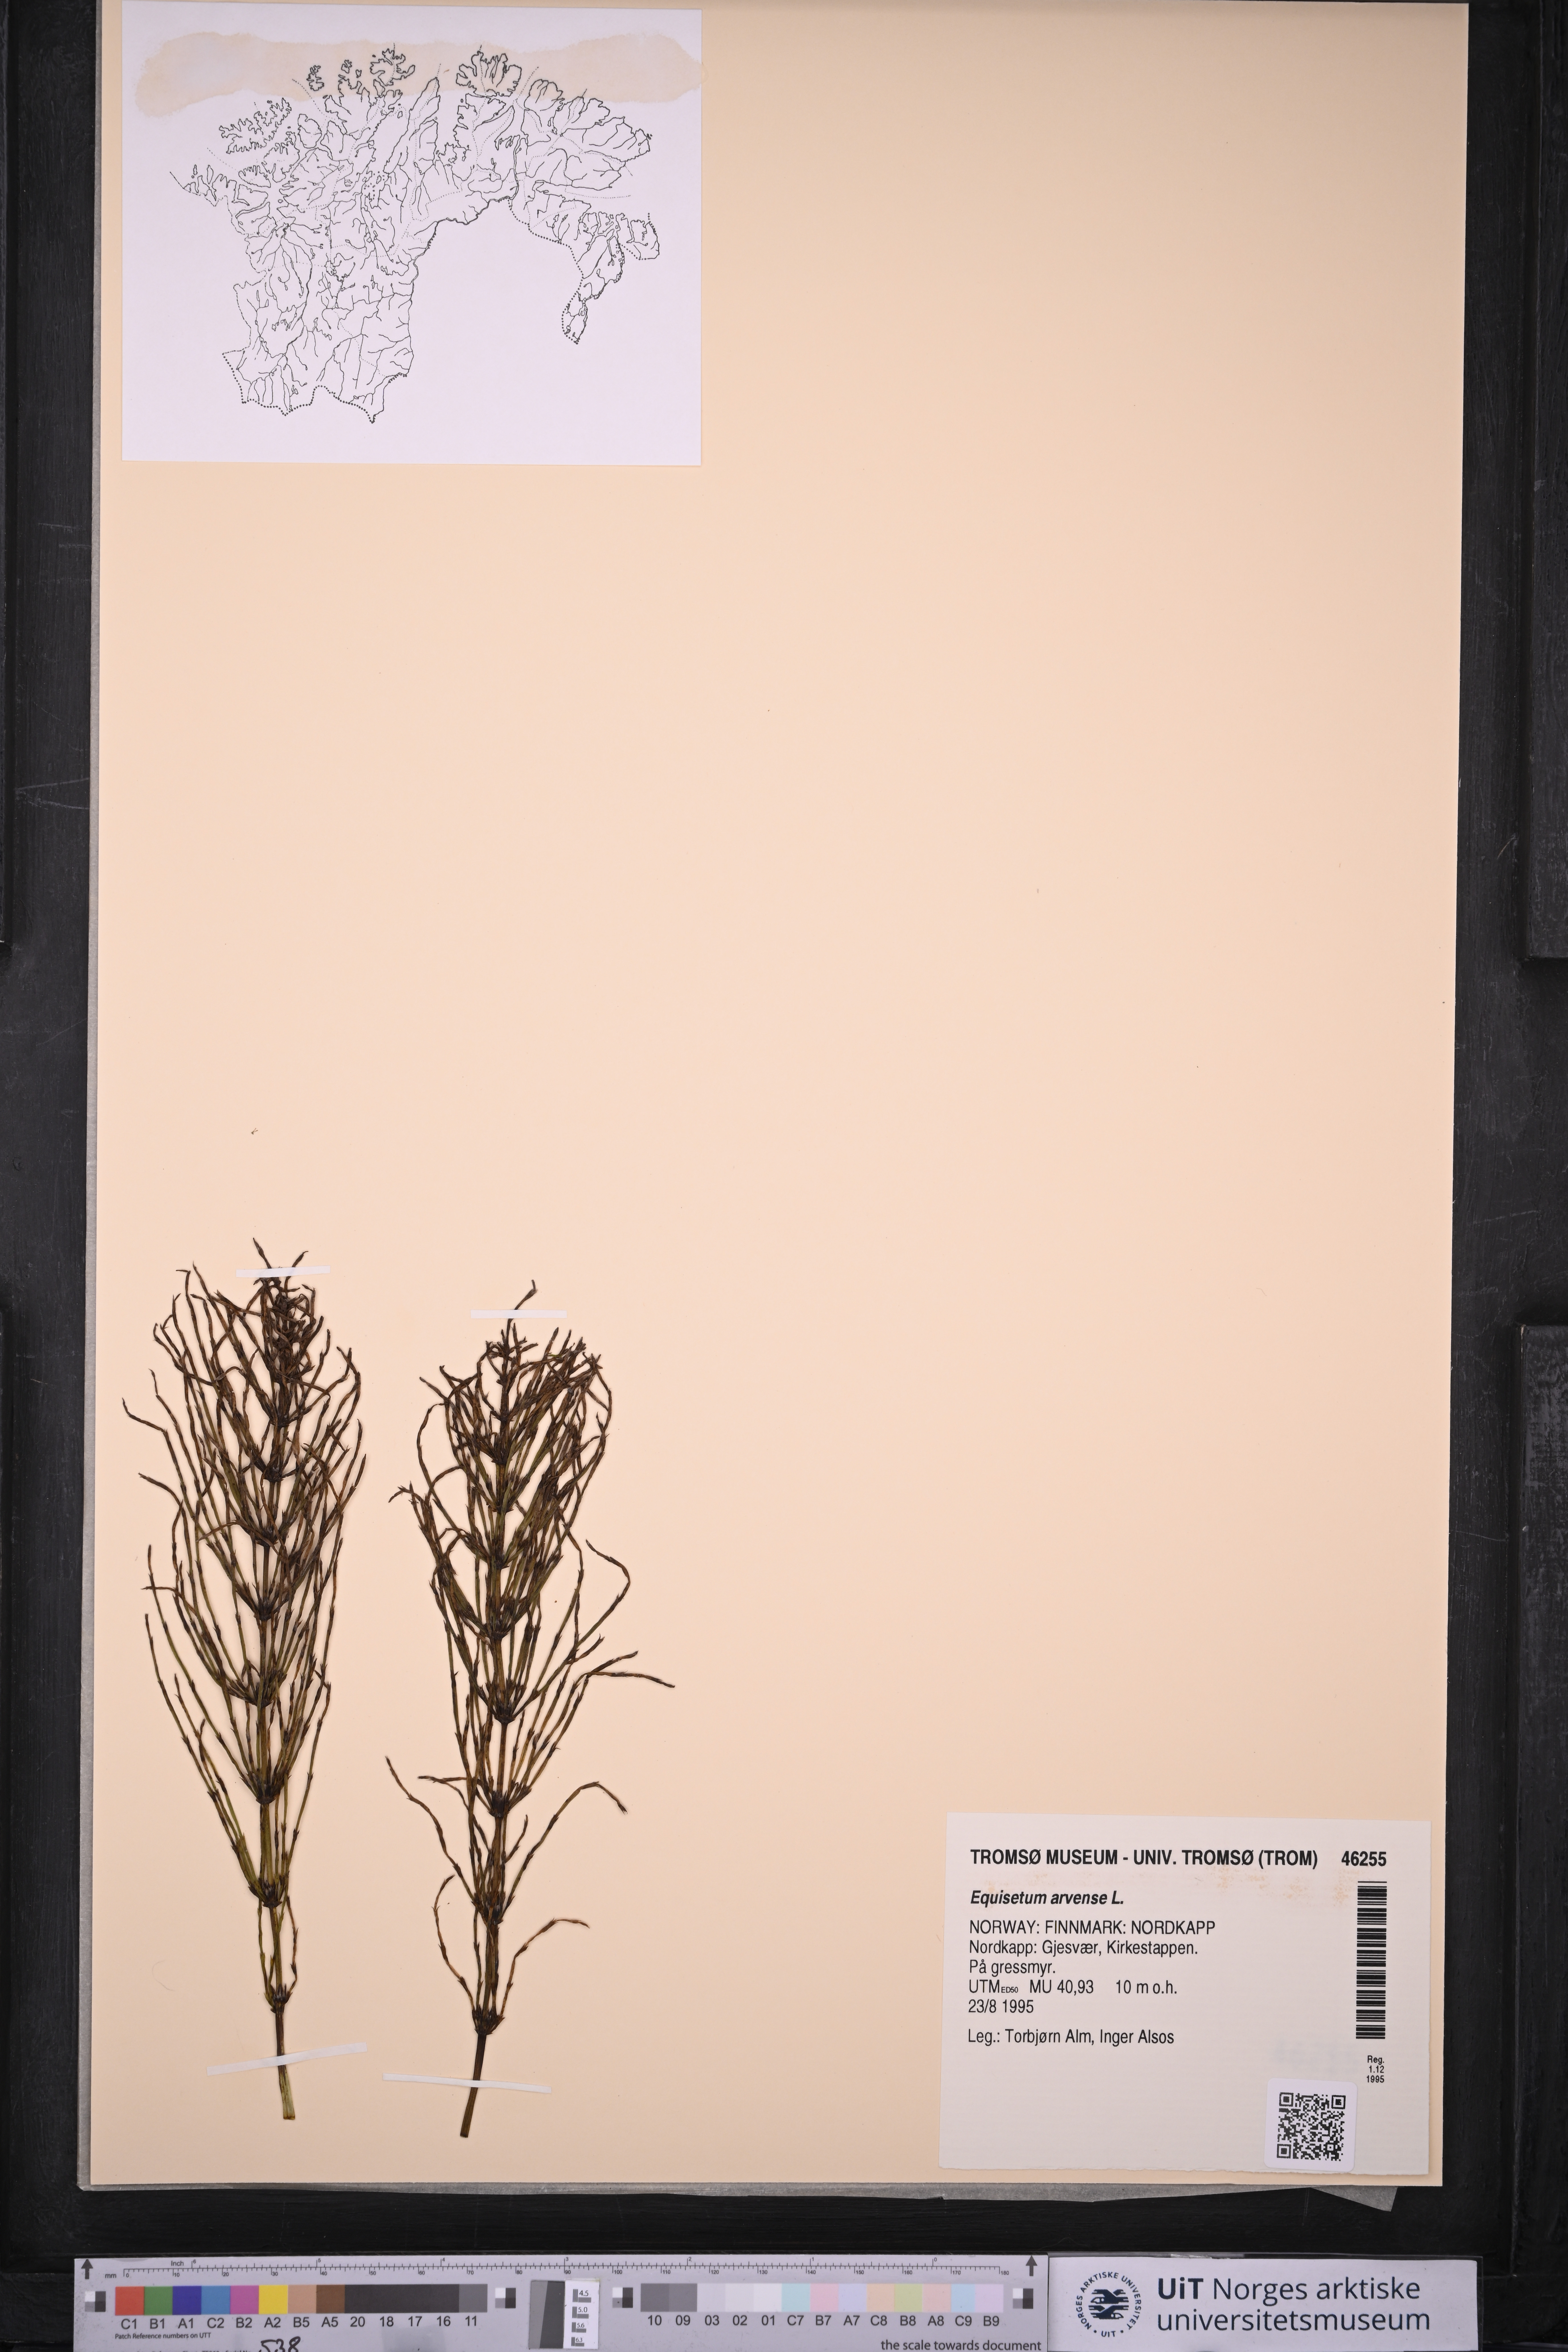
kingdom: Plantae
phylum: Tracheophyta
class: Polypodiopsida
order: Equisetales
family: Equisetaceae
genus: Equisetum
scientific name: Equisetum arvense
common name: Field horsetail
